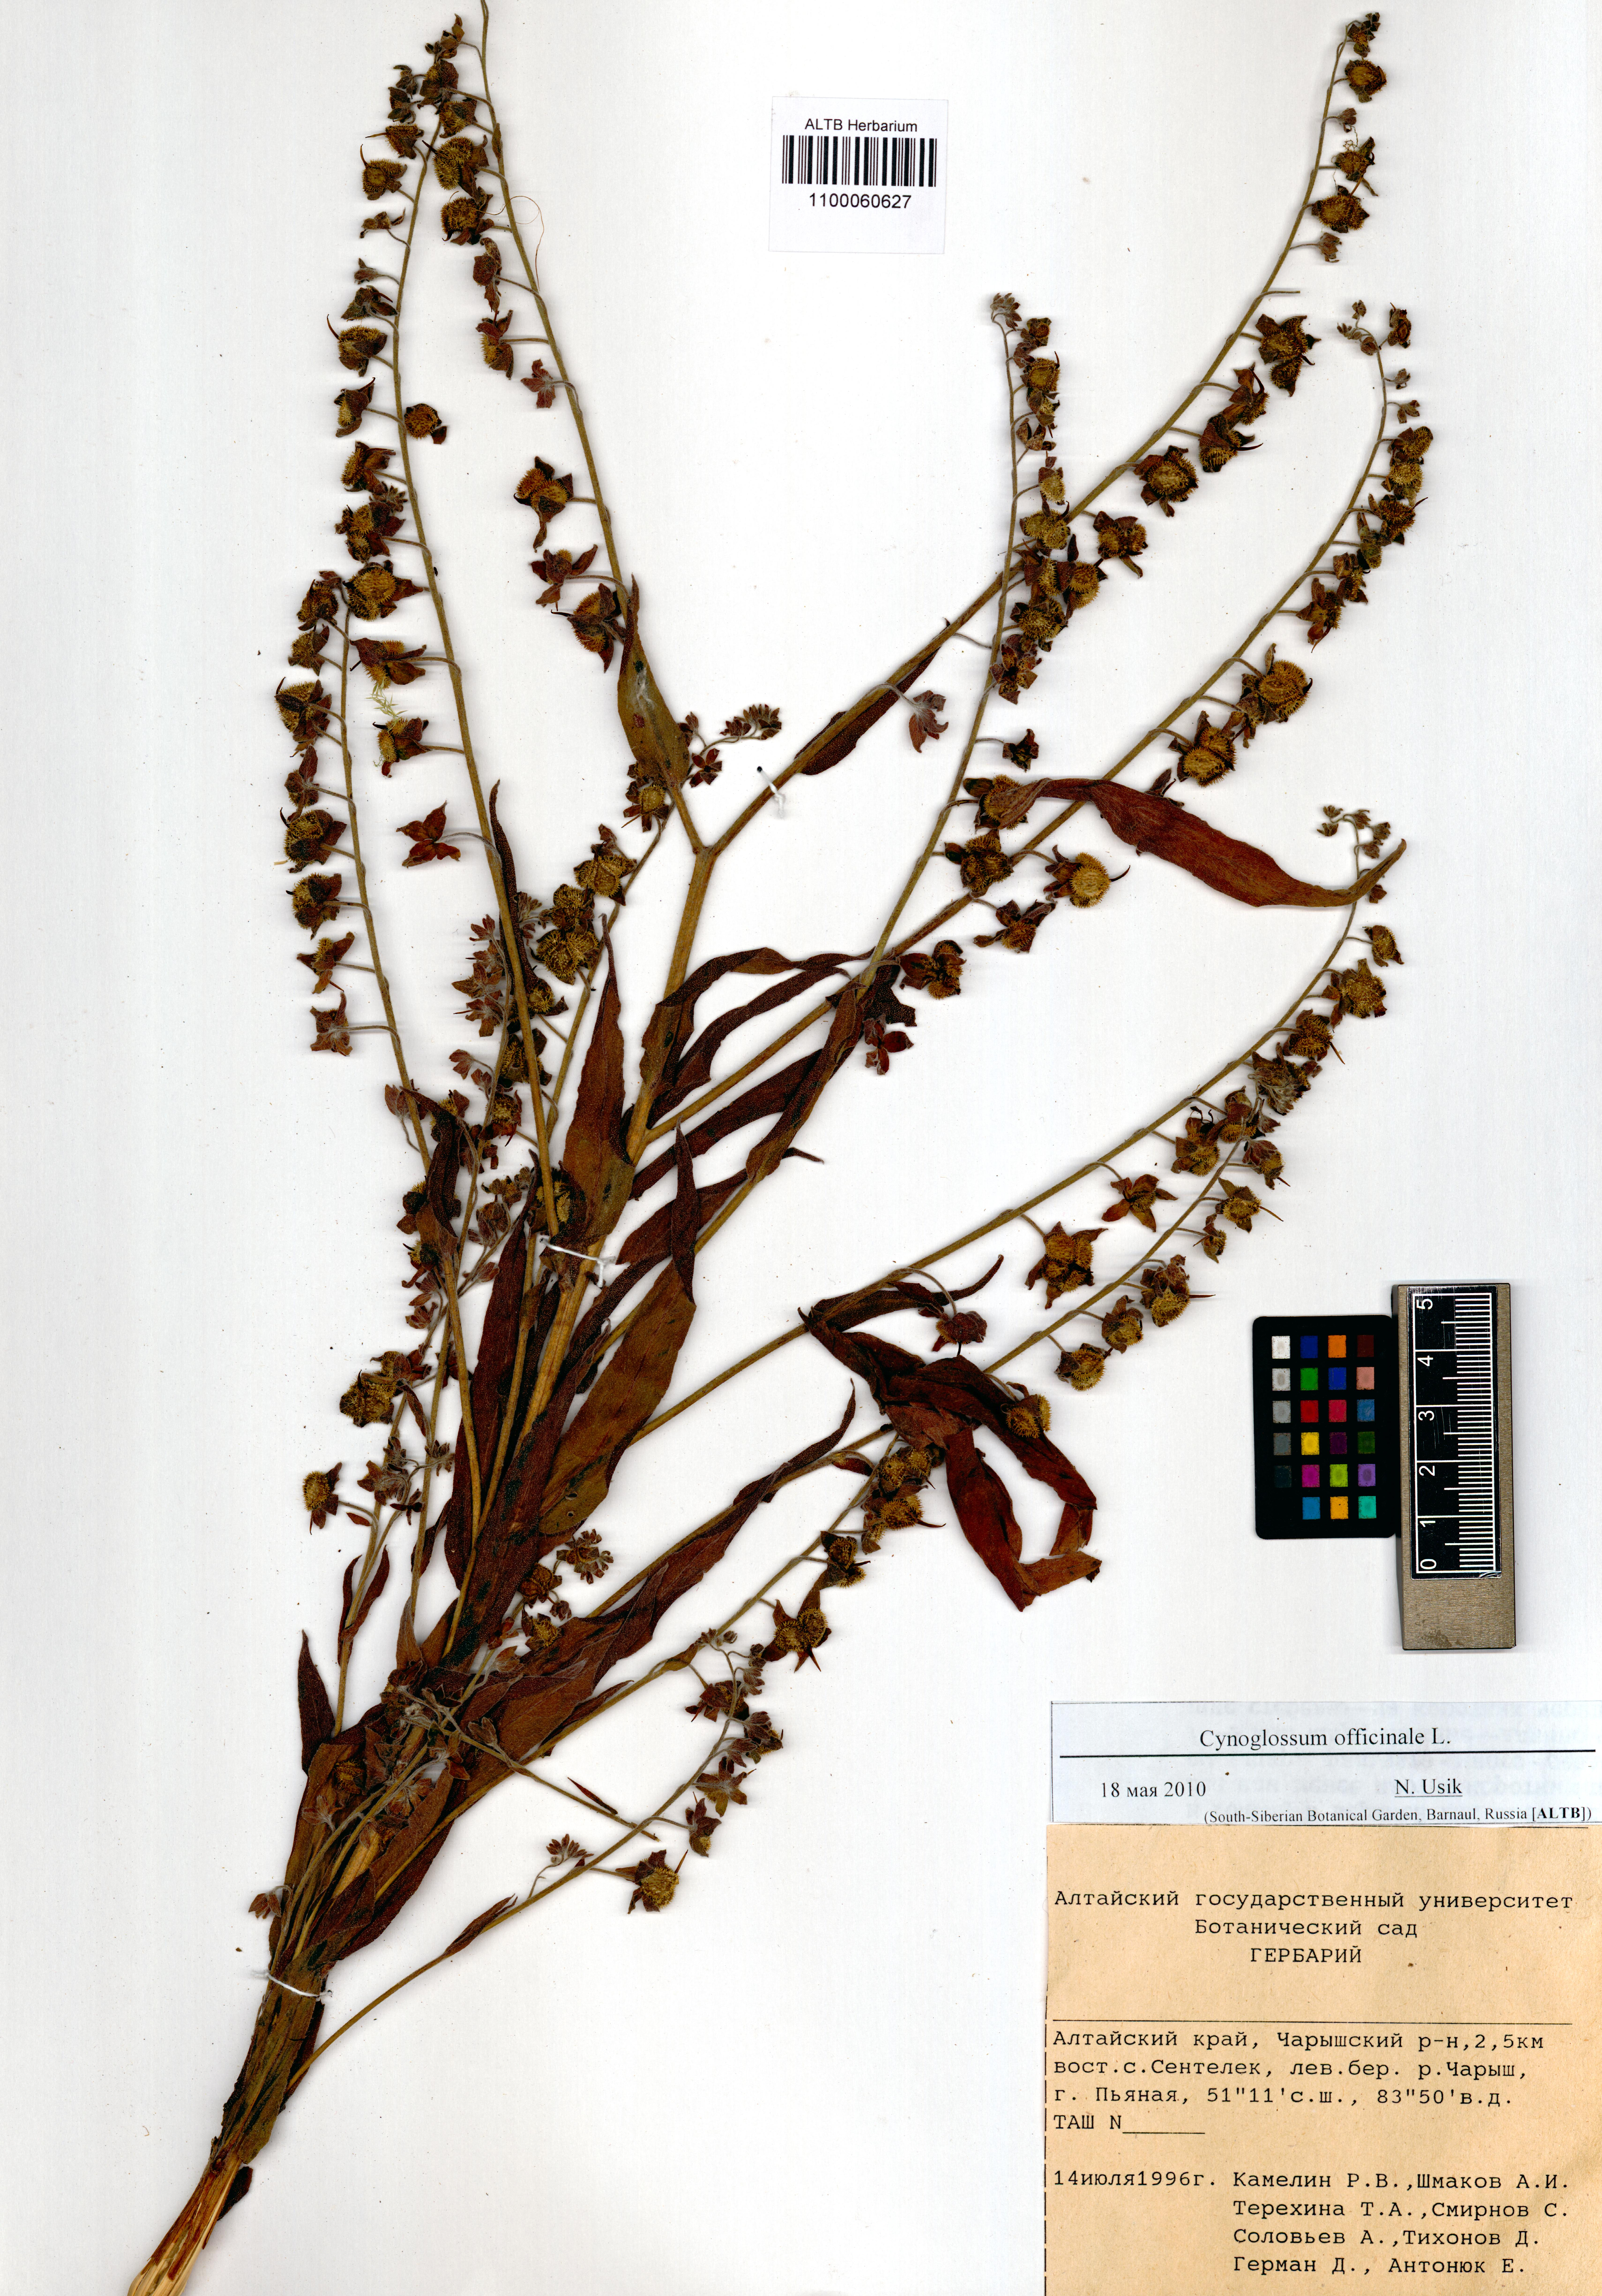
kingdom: Plantae
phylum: Tracheophyta
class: Magnoliopsida
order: Boraginales
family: Boraginaceae
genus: Cynoglossum
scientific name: Cynoglossum officinale
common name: Hound's-tongue
